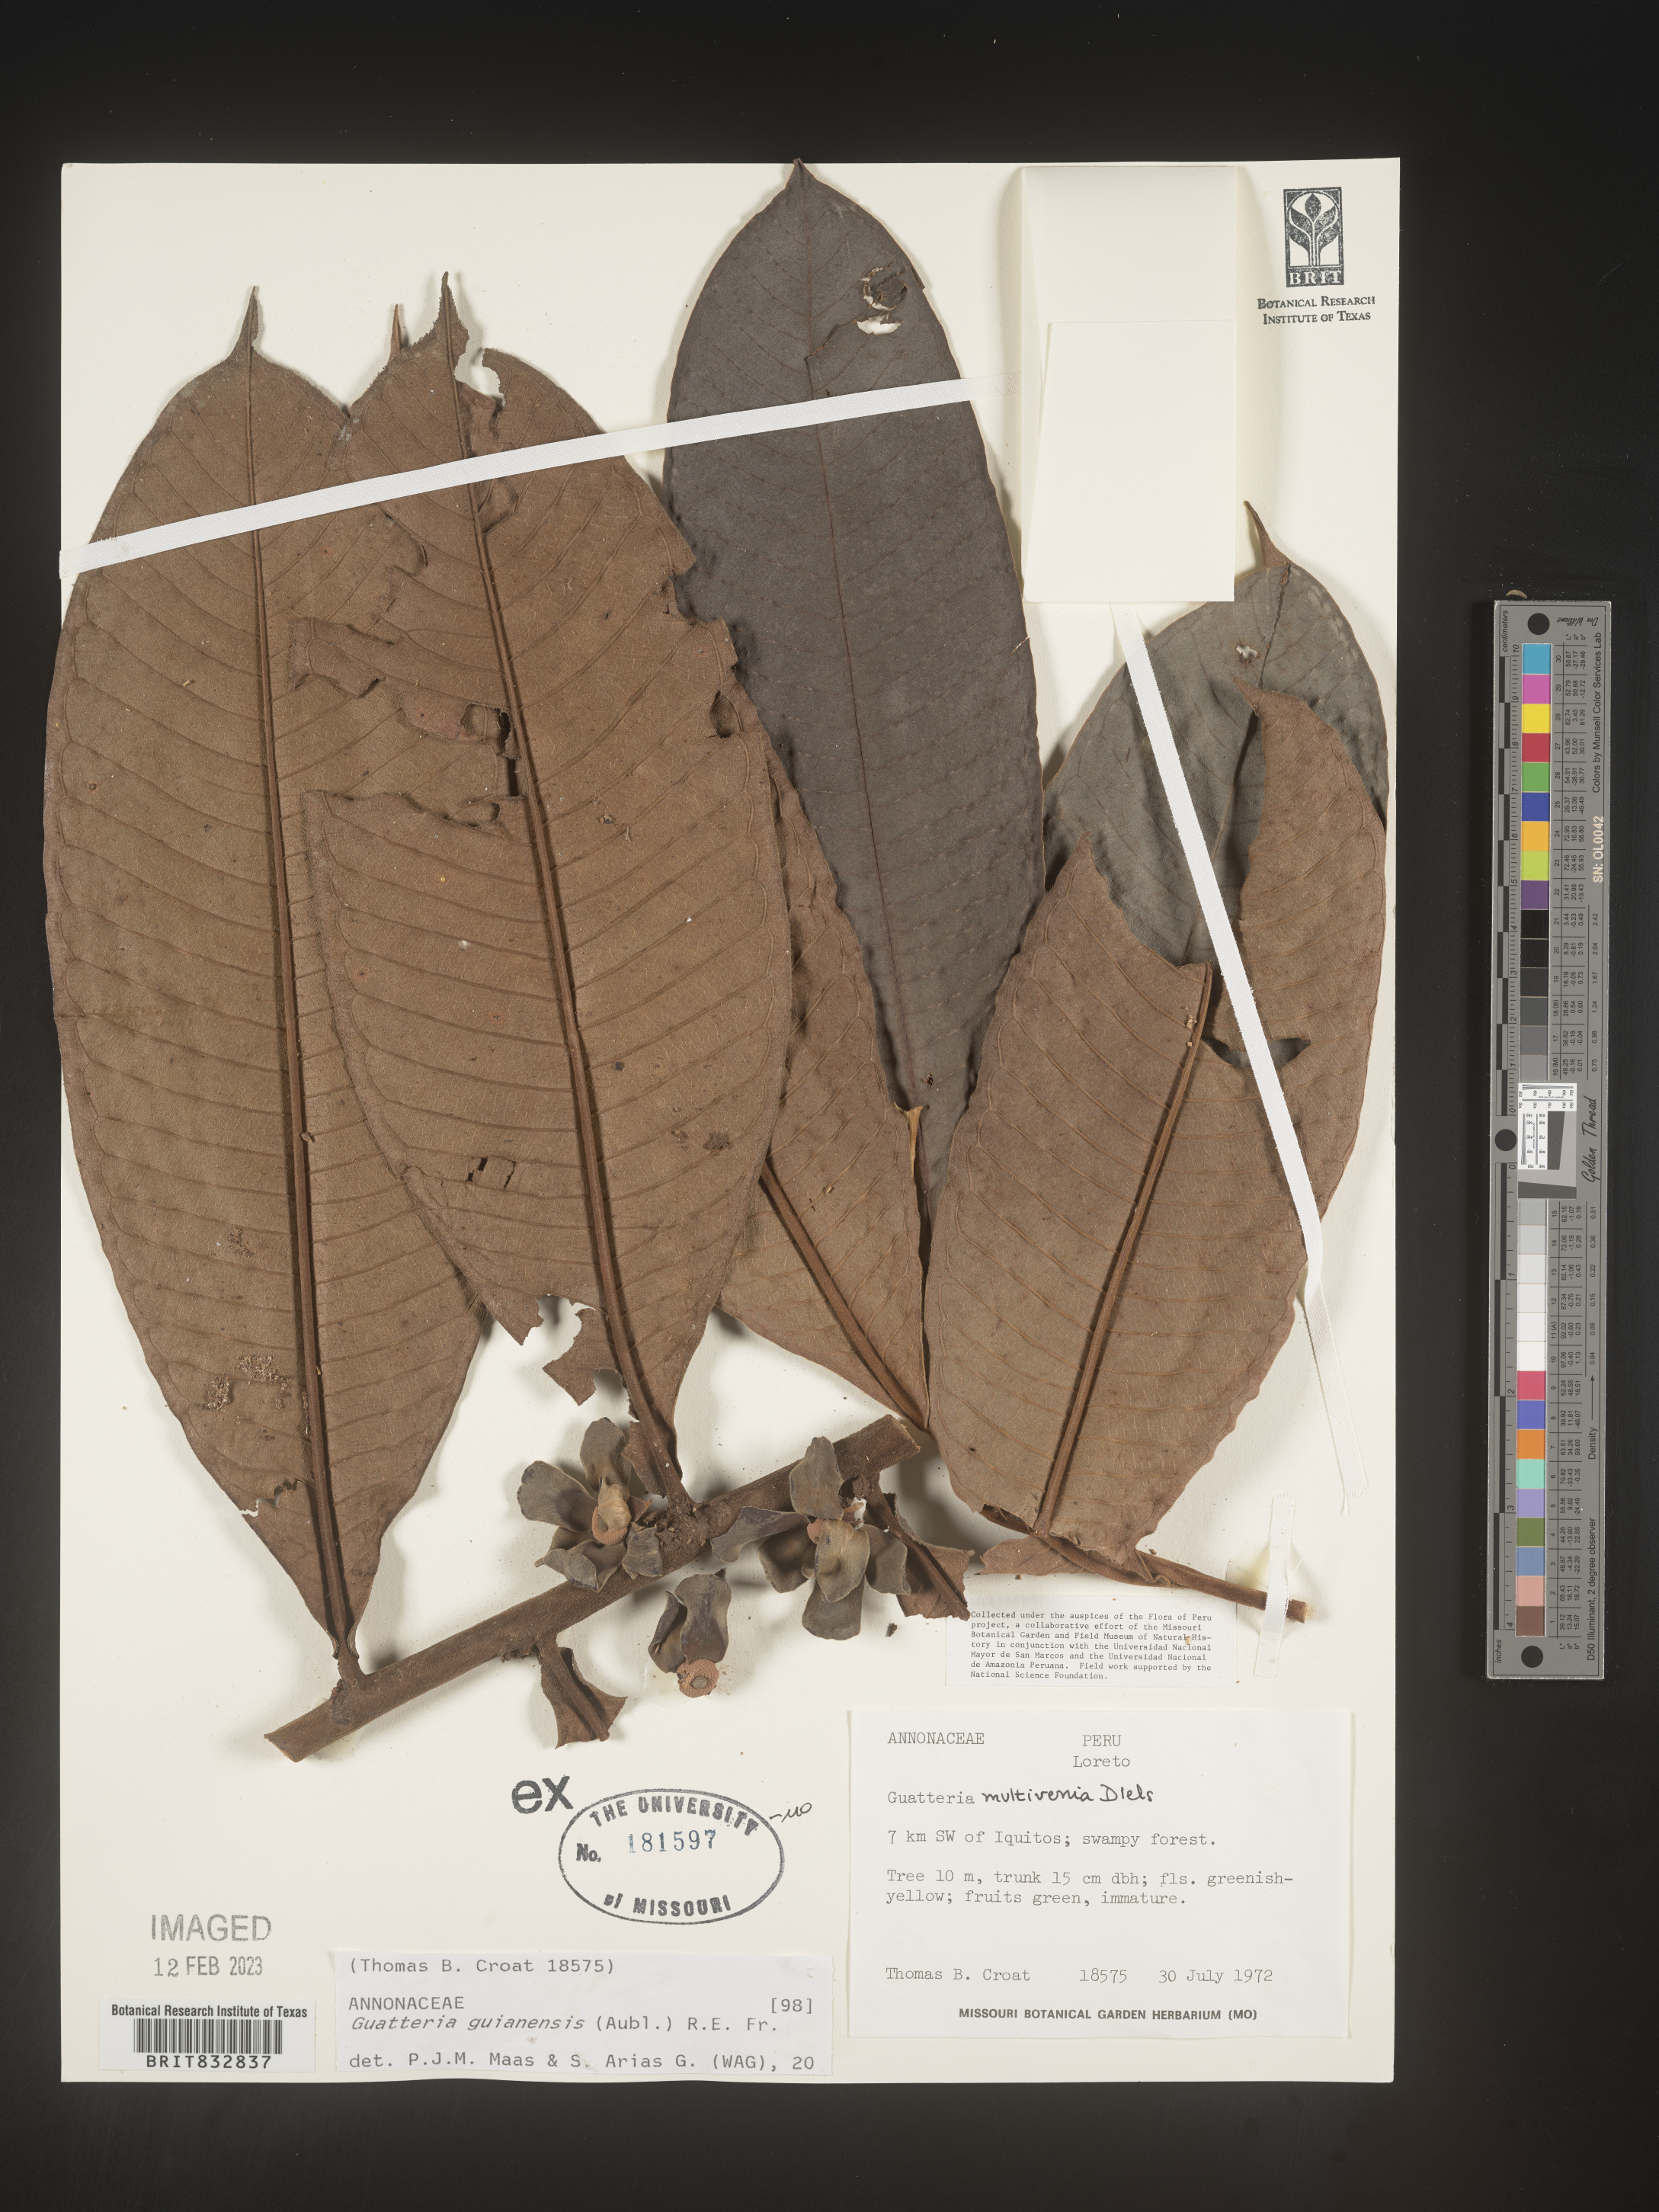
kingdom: Plantae
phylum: Tracheophyta
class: Magnoliopsida
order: Magnoliales
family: Annonaceae
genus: Guatteria
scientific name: Guatteria guianensis
